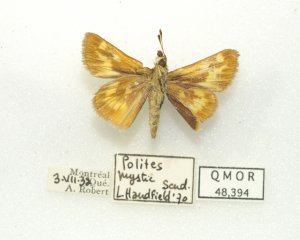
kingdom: Animalia
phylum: Arthropoda
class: Insecta
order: Lepidoptera
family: Hesperiidae
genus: Polites
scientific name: Polites
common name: Long Dash Skipper
